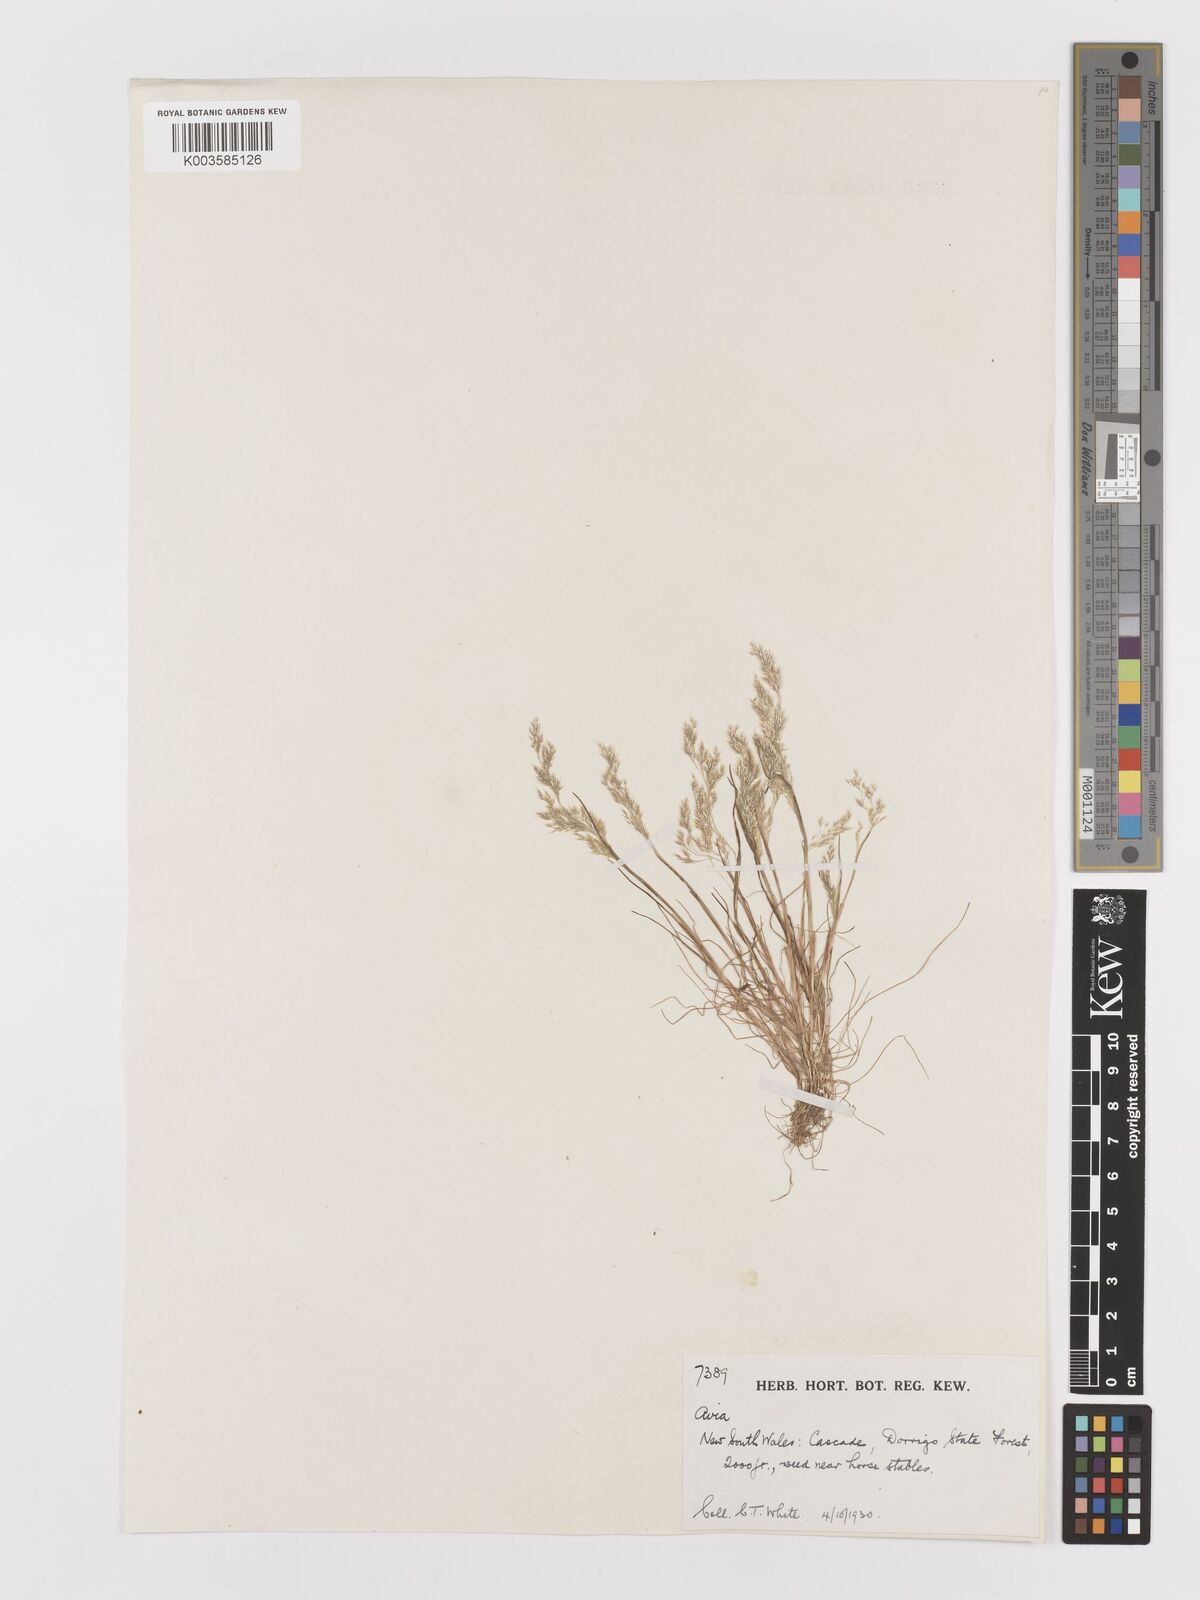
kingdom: Plantae
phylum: Tracheophyta
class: Liliopsida
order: Poales
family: Poaceae
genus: Aira
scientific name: Aira cupaniana
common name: Silver hairgrass
